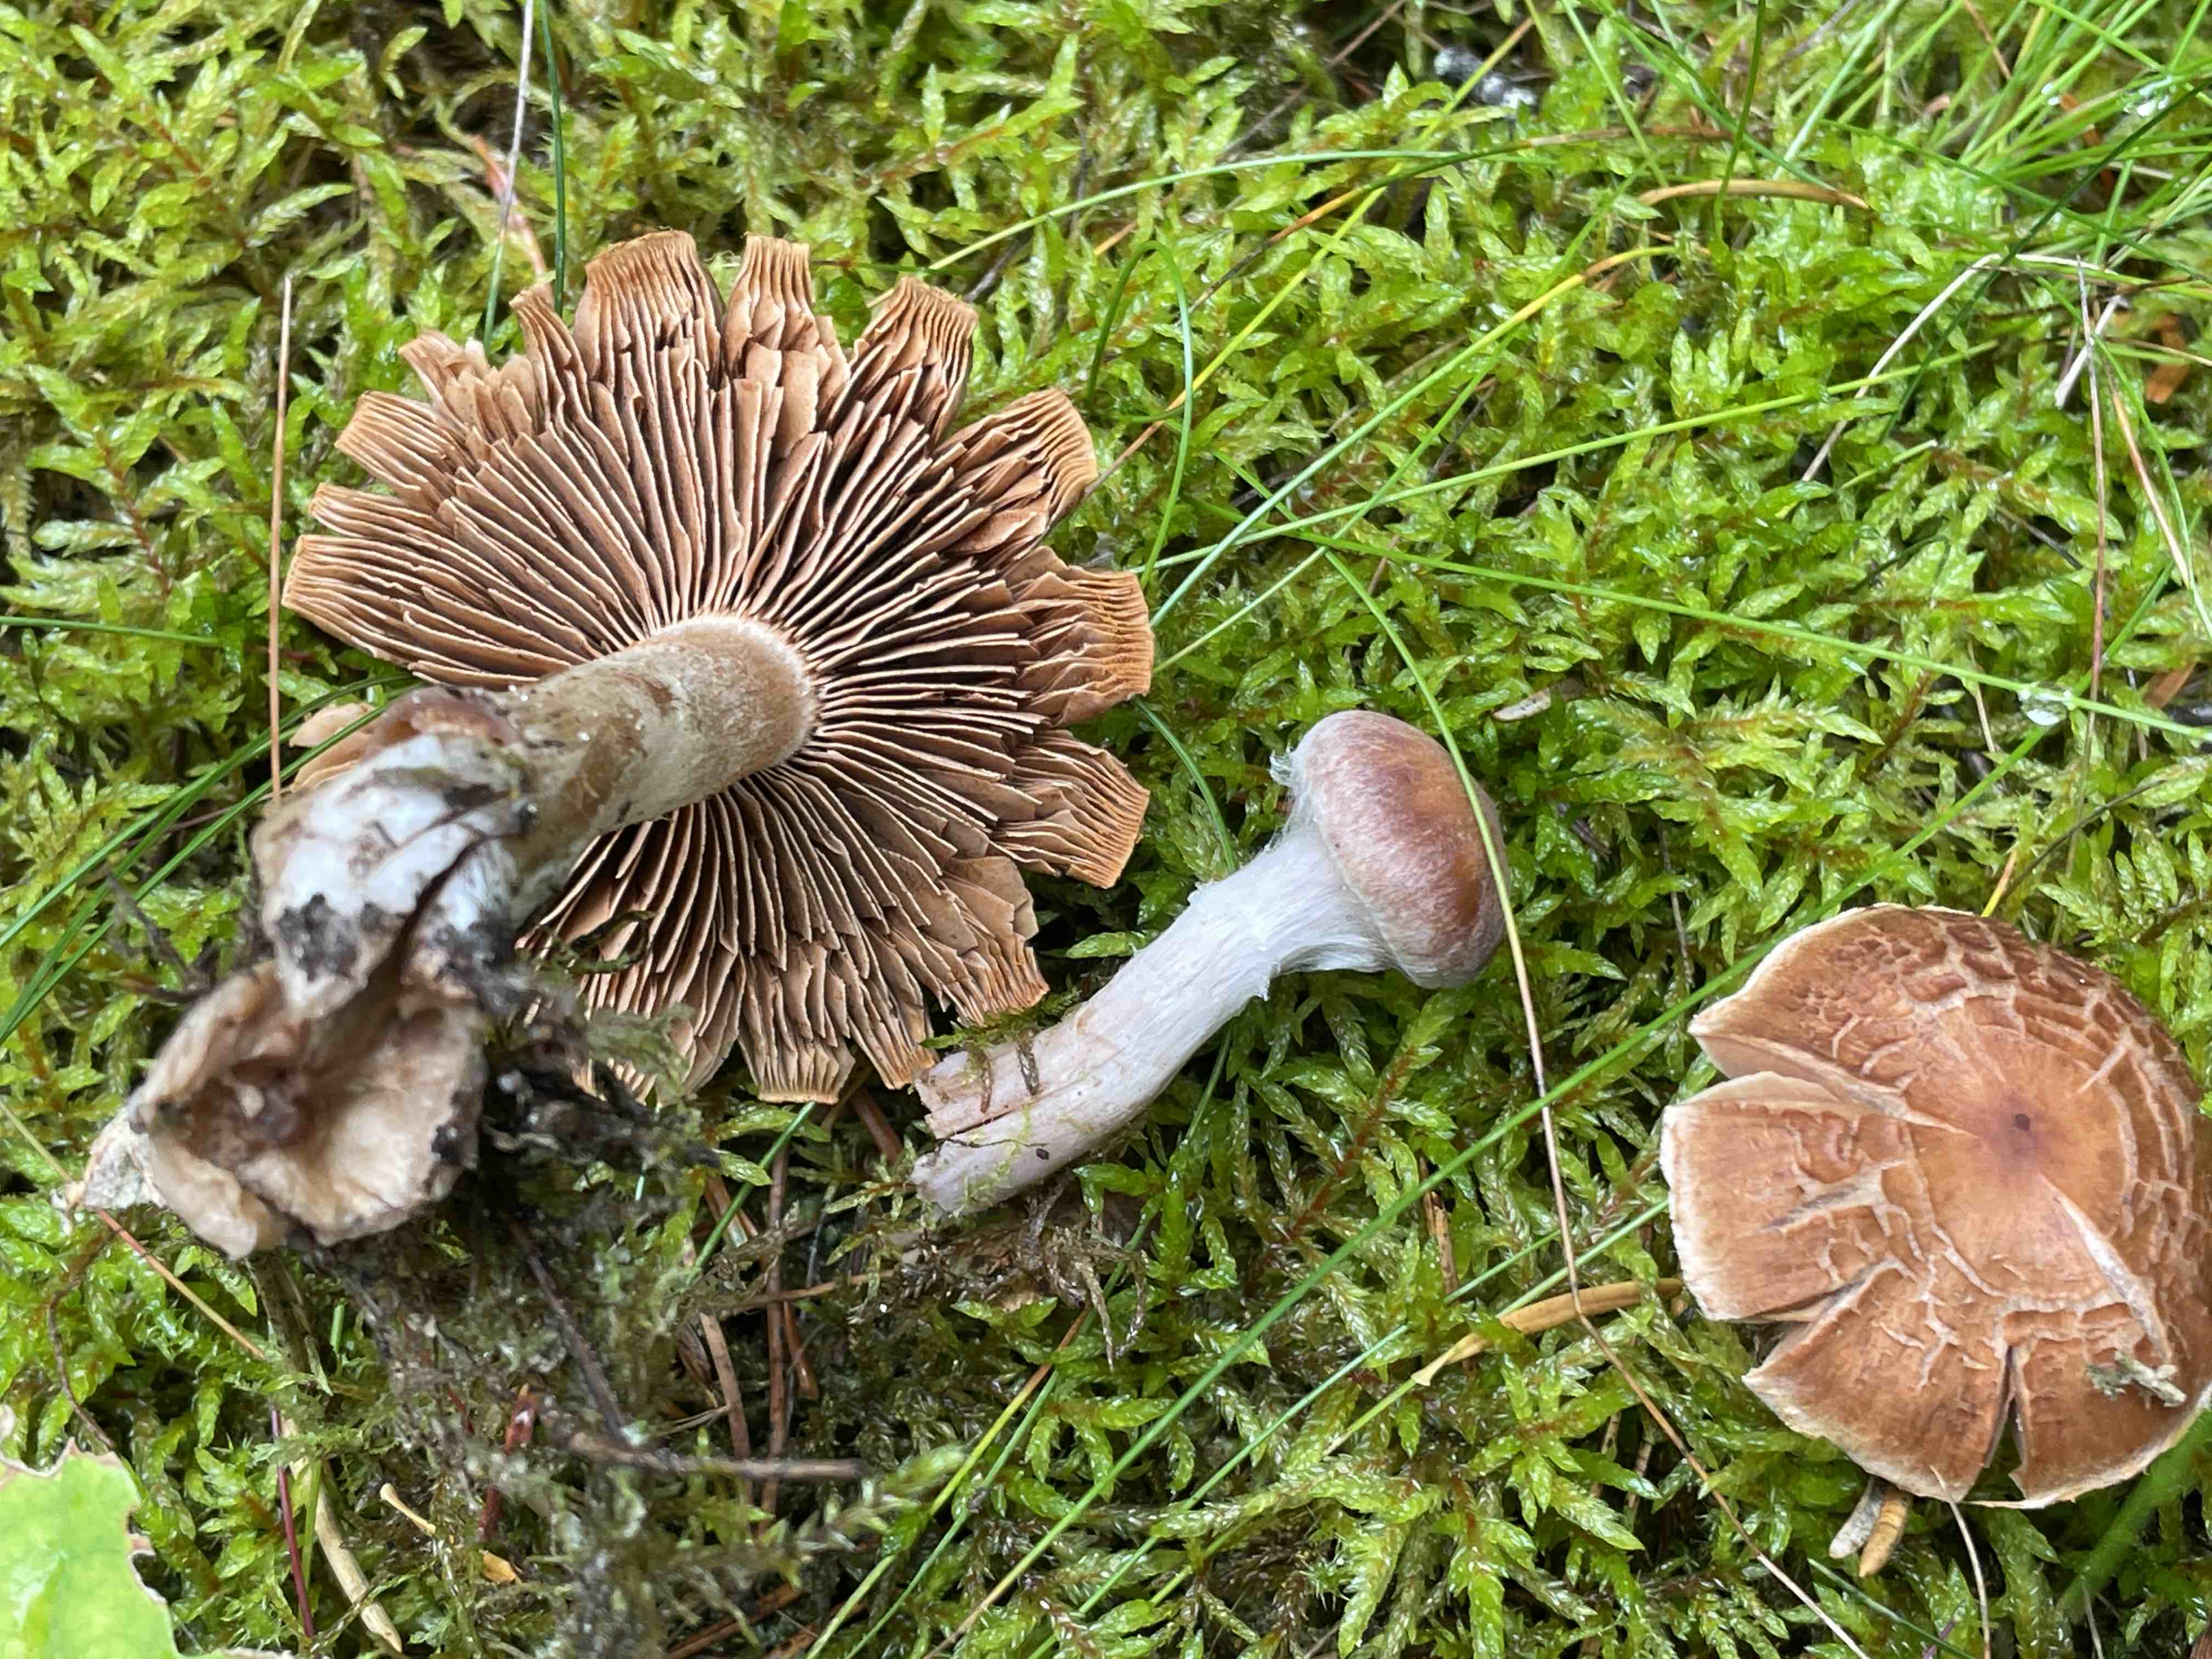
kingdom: Fungi
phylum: Basidiomycota
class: Agaricomycetes
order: Agaricales
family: Cortinariaceae
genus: Cortinarius
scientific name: Cortinarius
